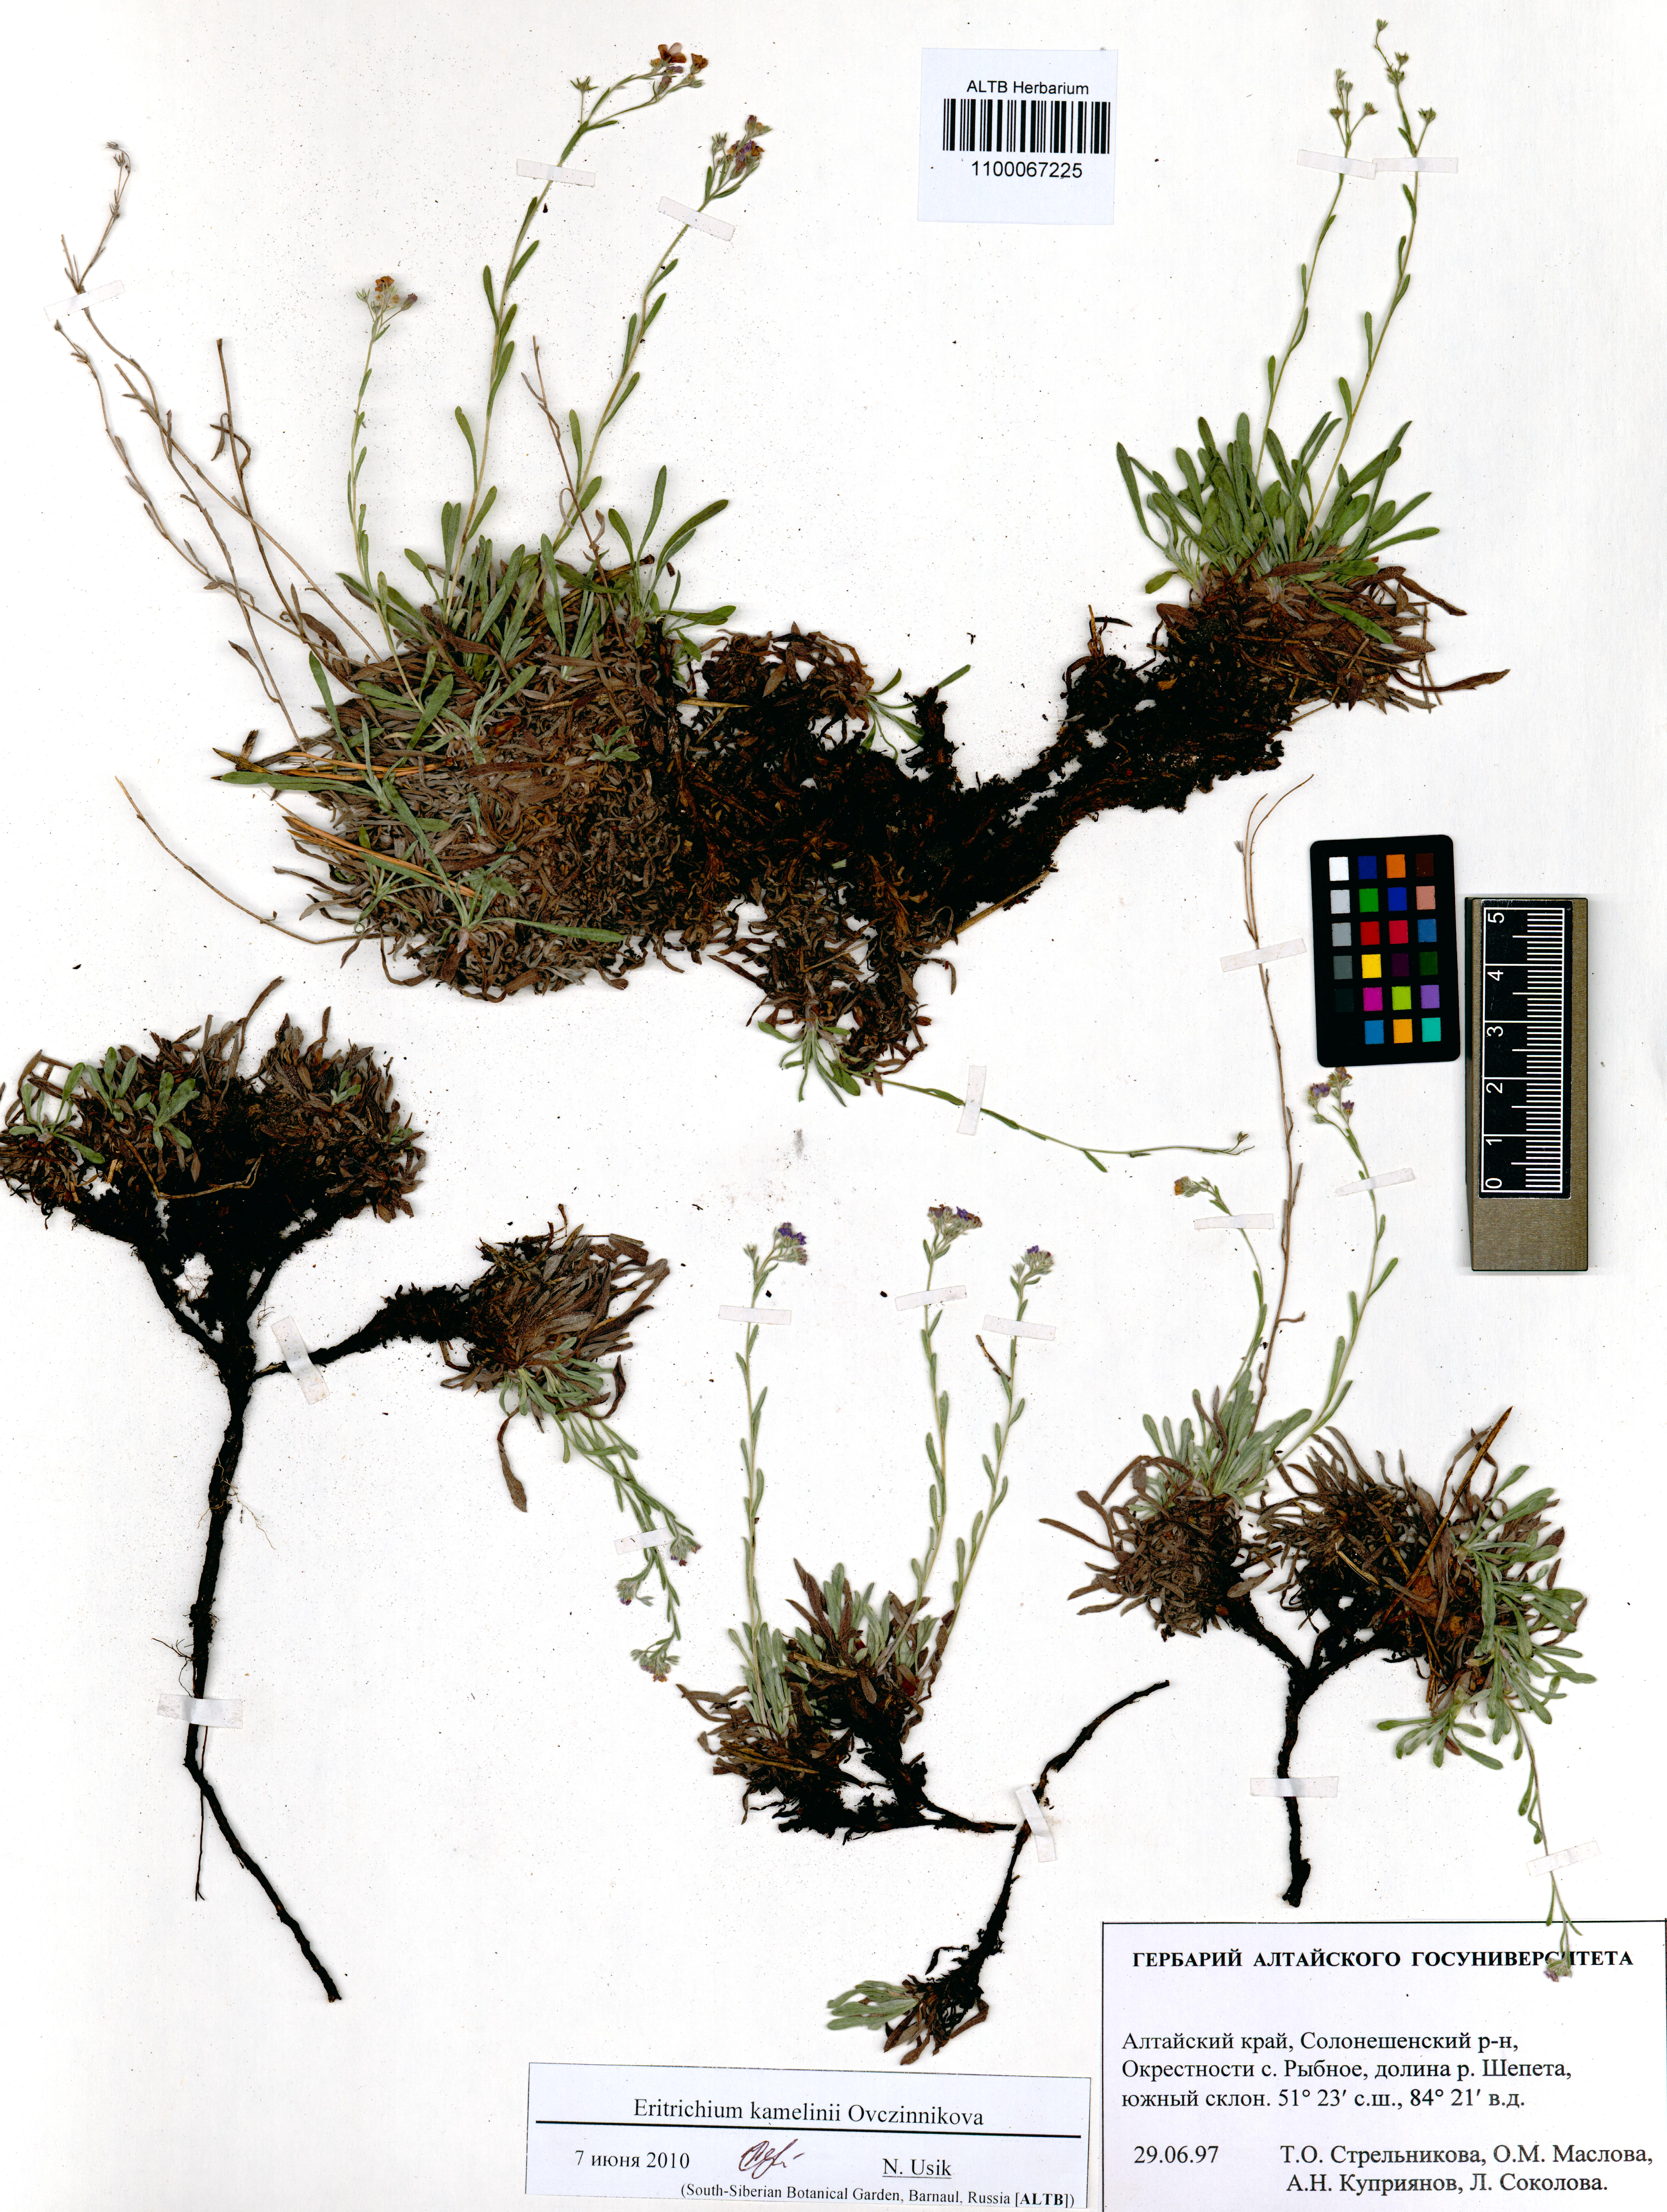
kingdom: Plantae
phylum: Tracheophyta
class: Magnoliopsida
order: Boraginales
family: Boraginaceae
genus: Eritrichium
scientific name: Eritrichium kamelinii
